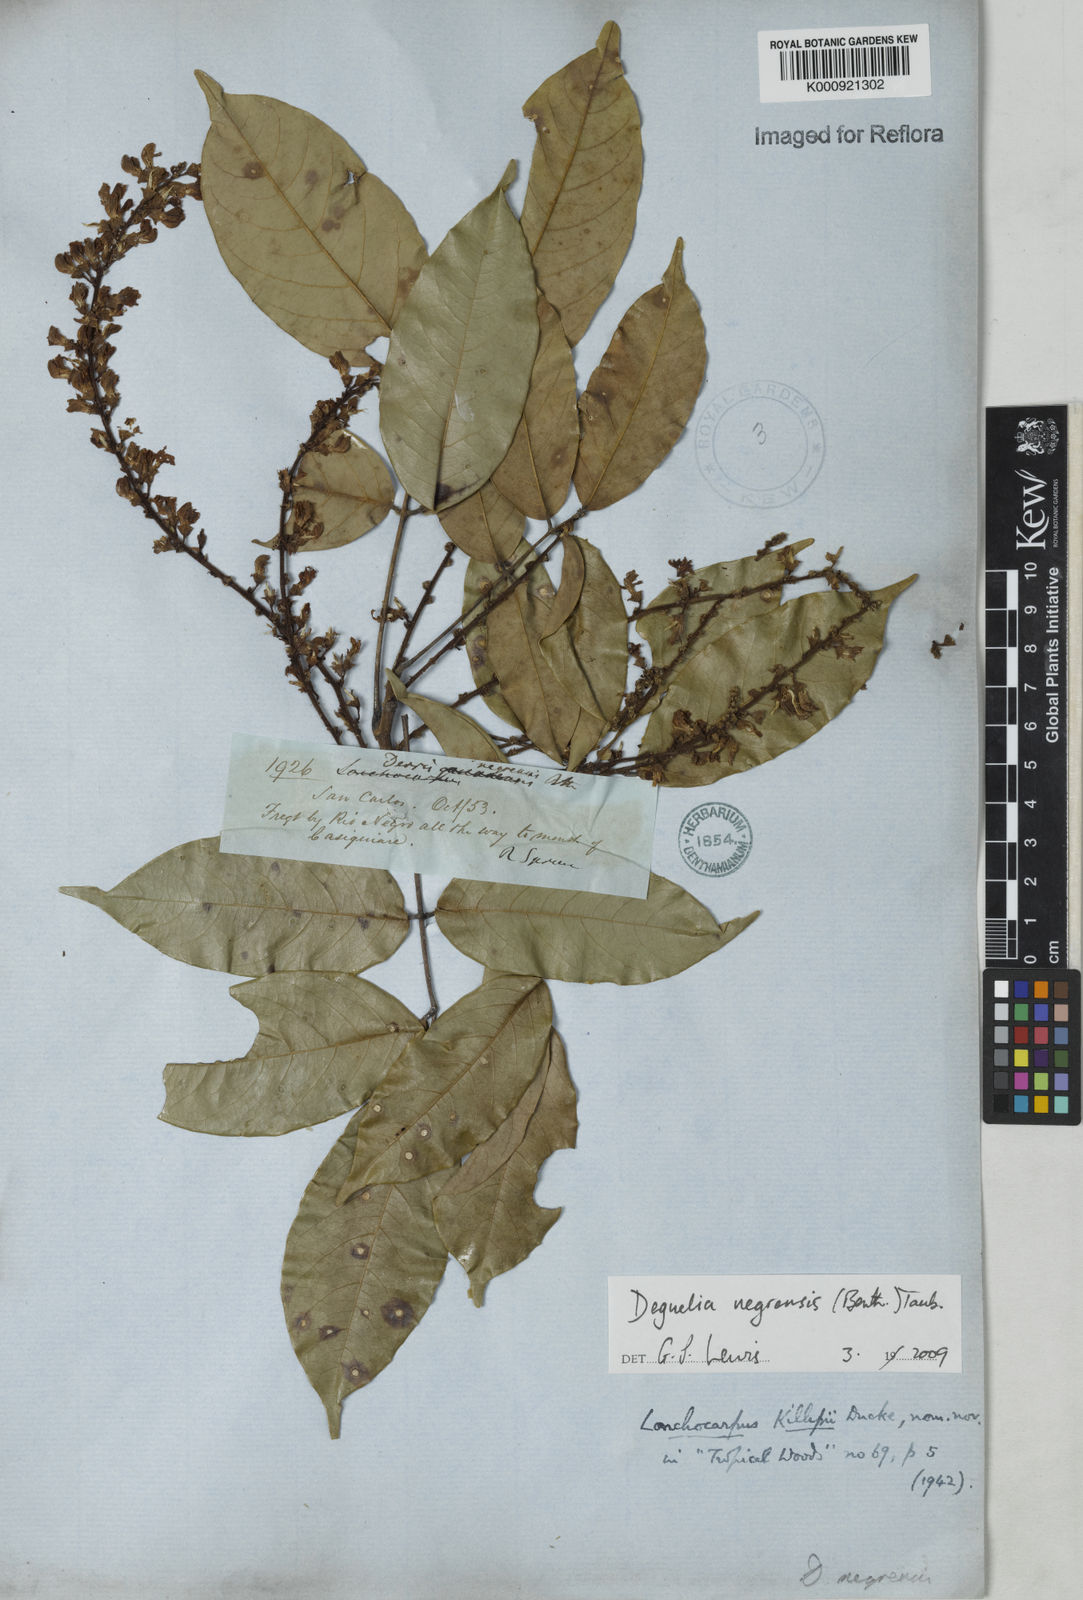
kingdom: Plantae
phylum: Tracheophyta
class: Magnoliopsida
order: Fabales
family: Fabaceae
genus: Deguelia
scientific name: Deguelia negrensis
